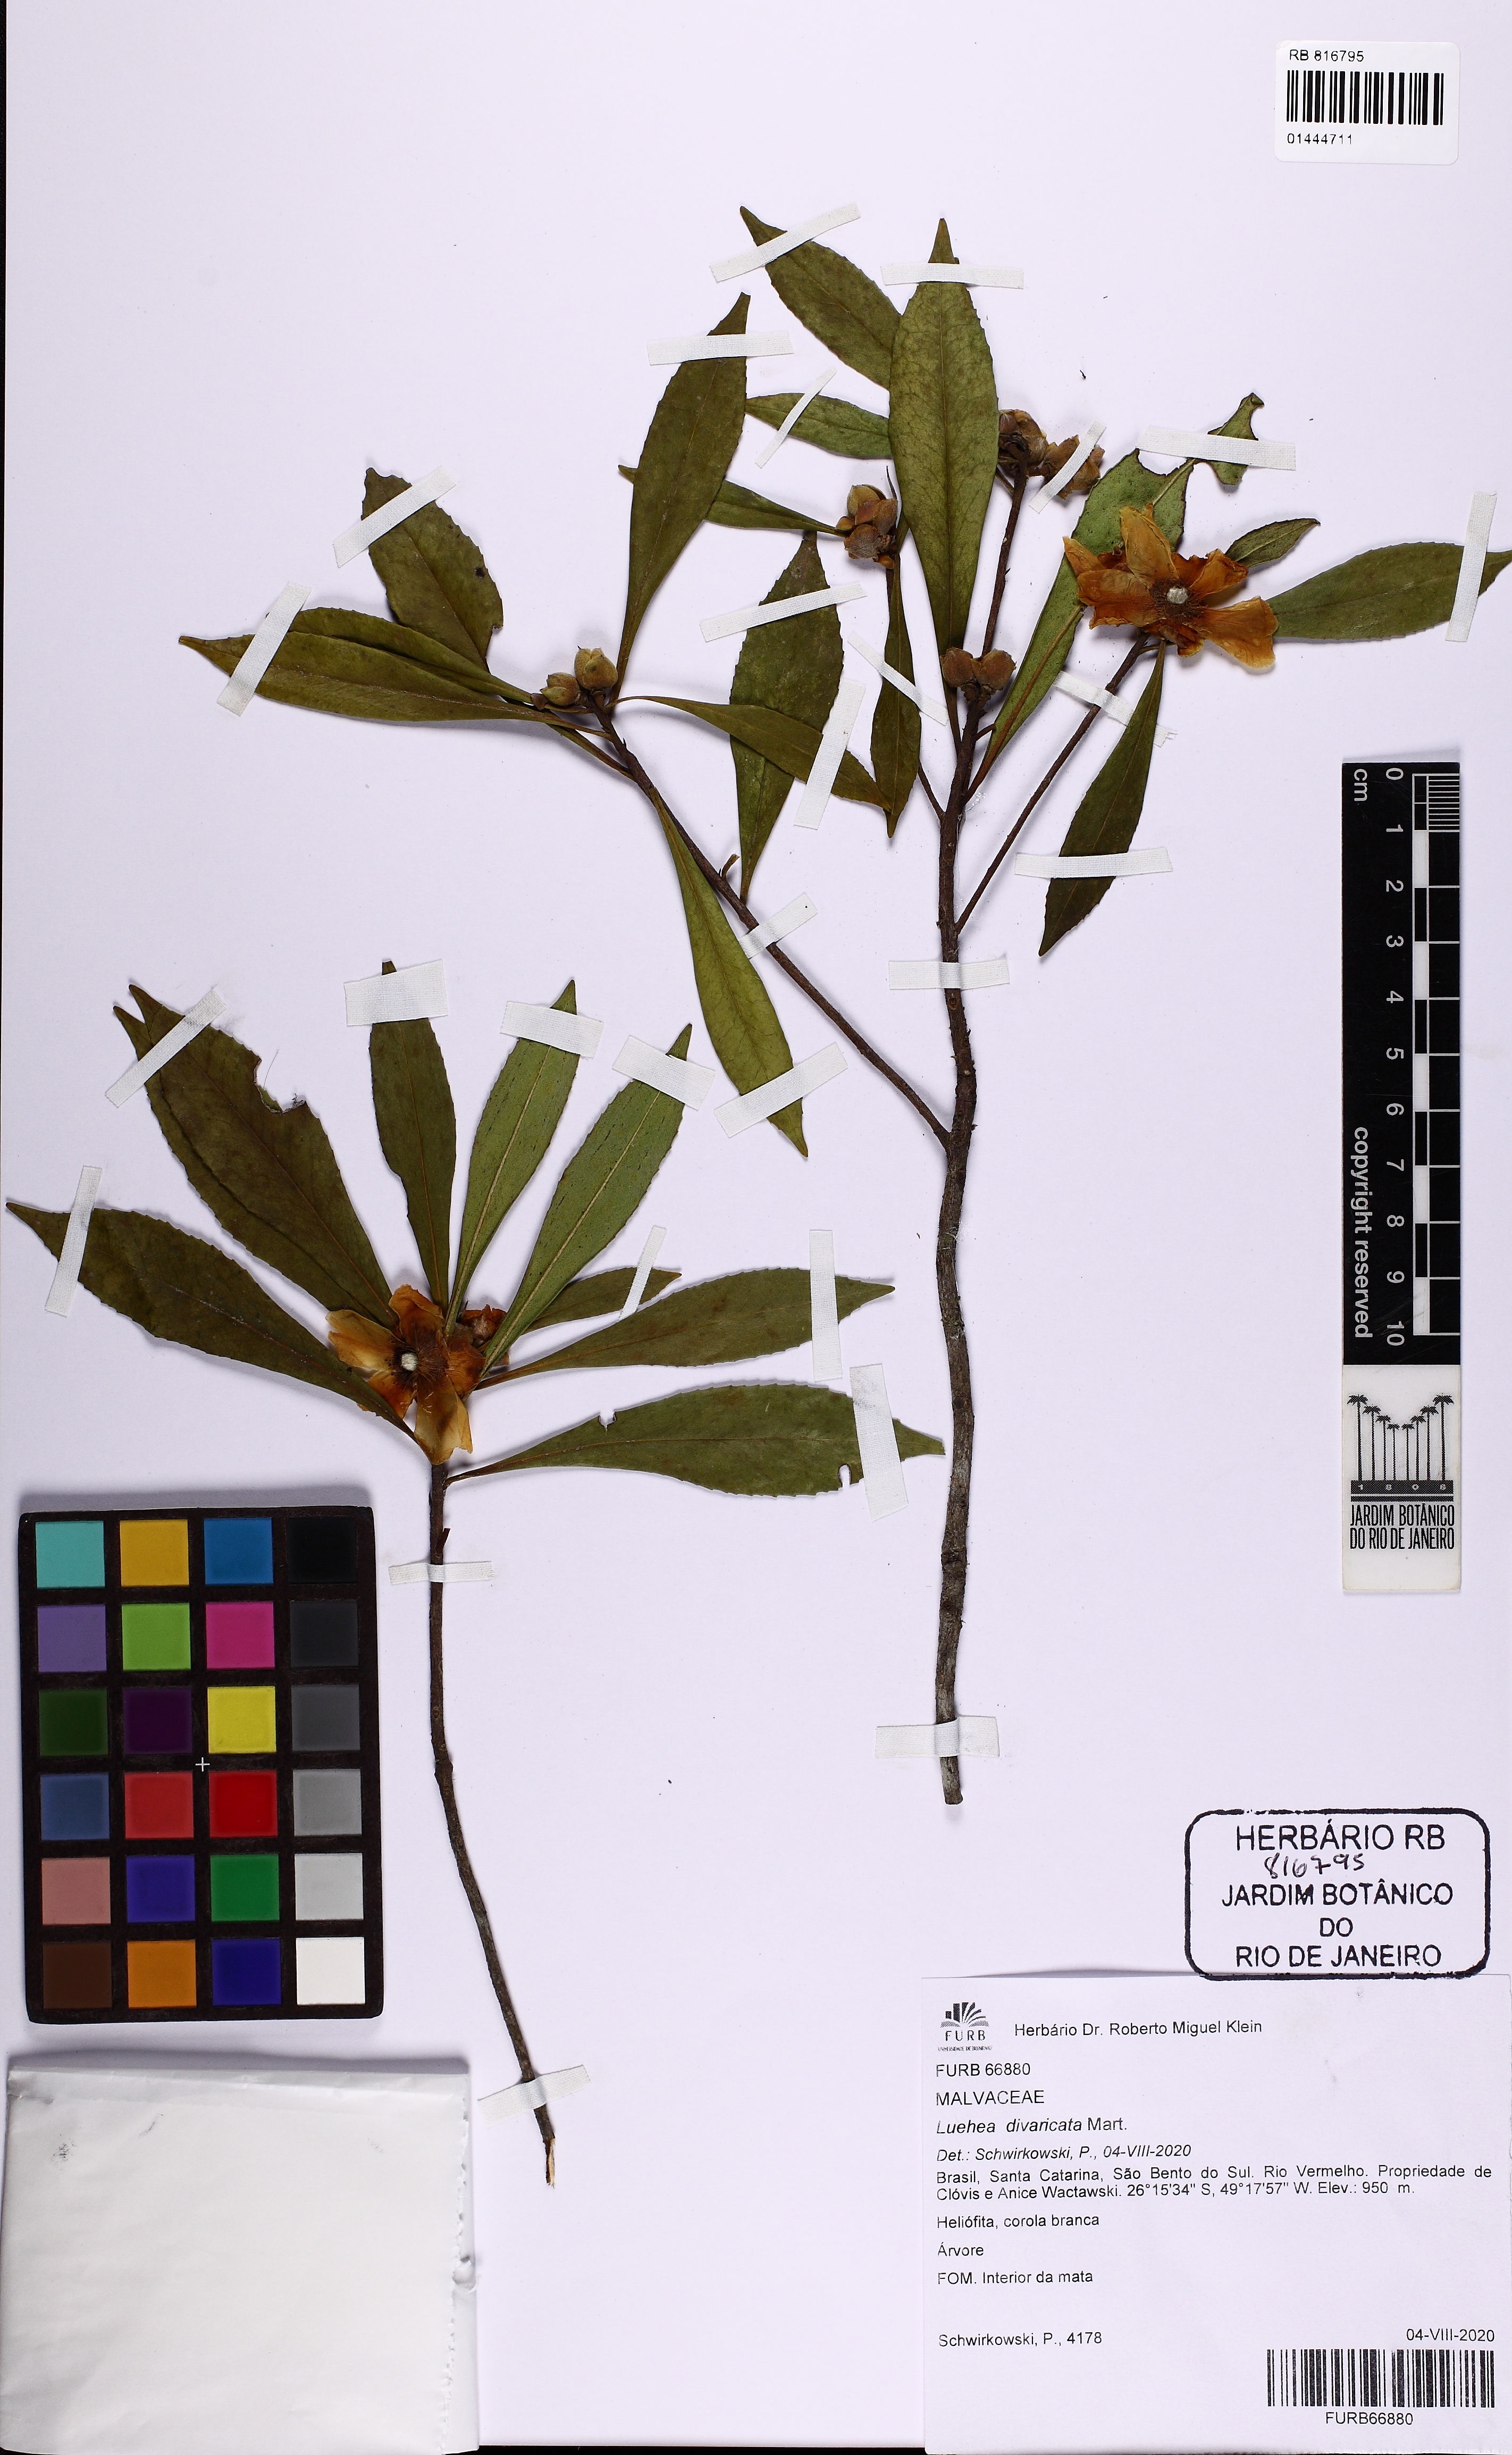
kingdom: Plantae
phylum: Tracheophyta
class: Magnoliopsida
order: Ericales
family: Theaceae
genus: Gordonia
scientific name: Gordonia fruticosa
